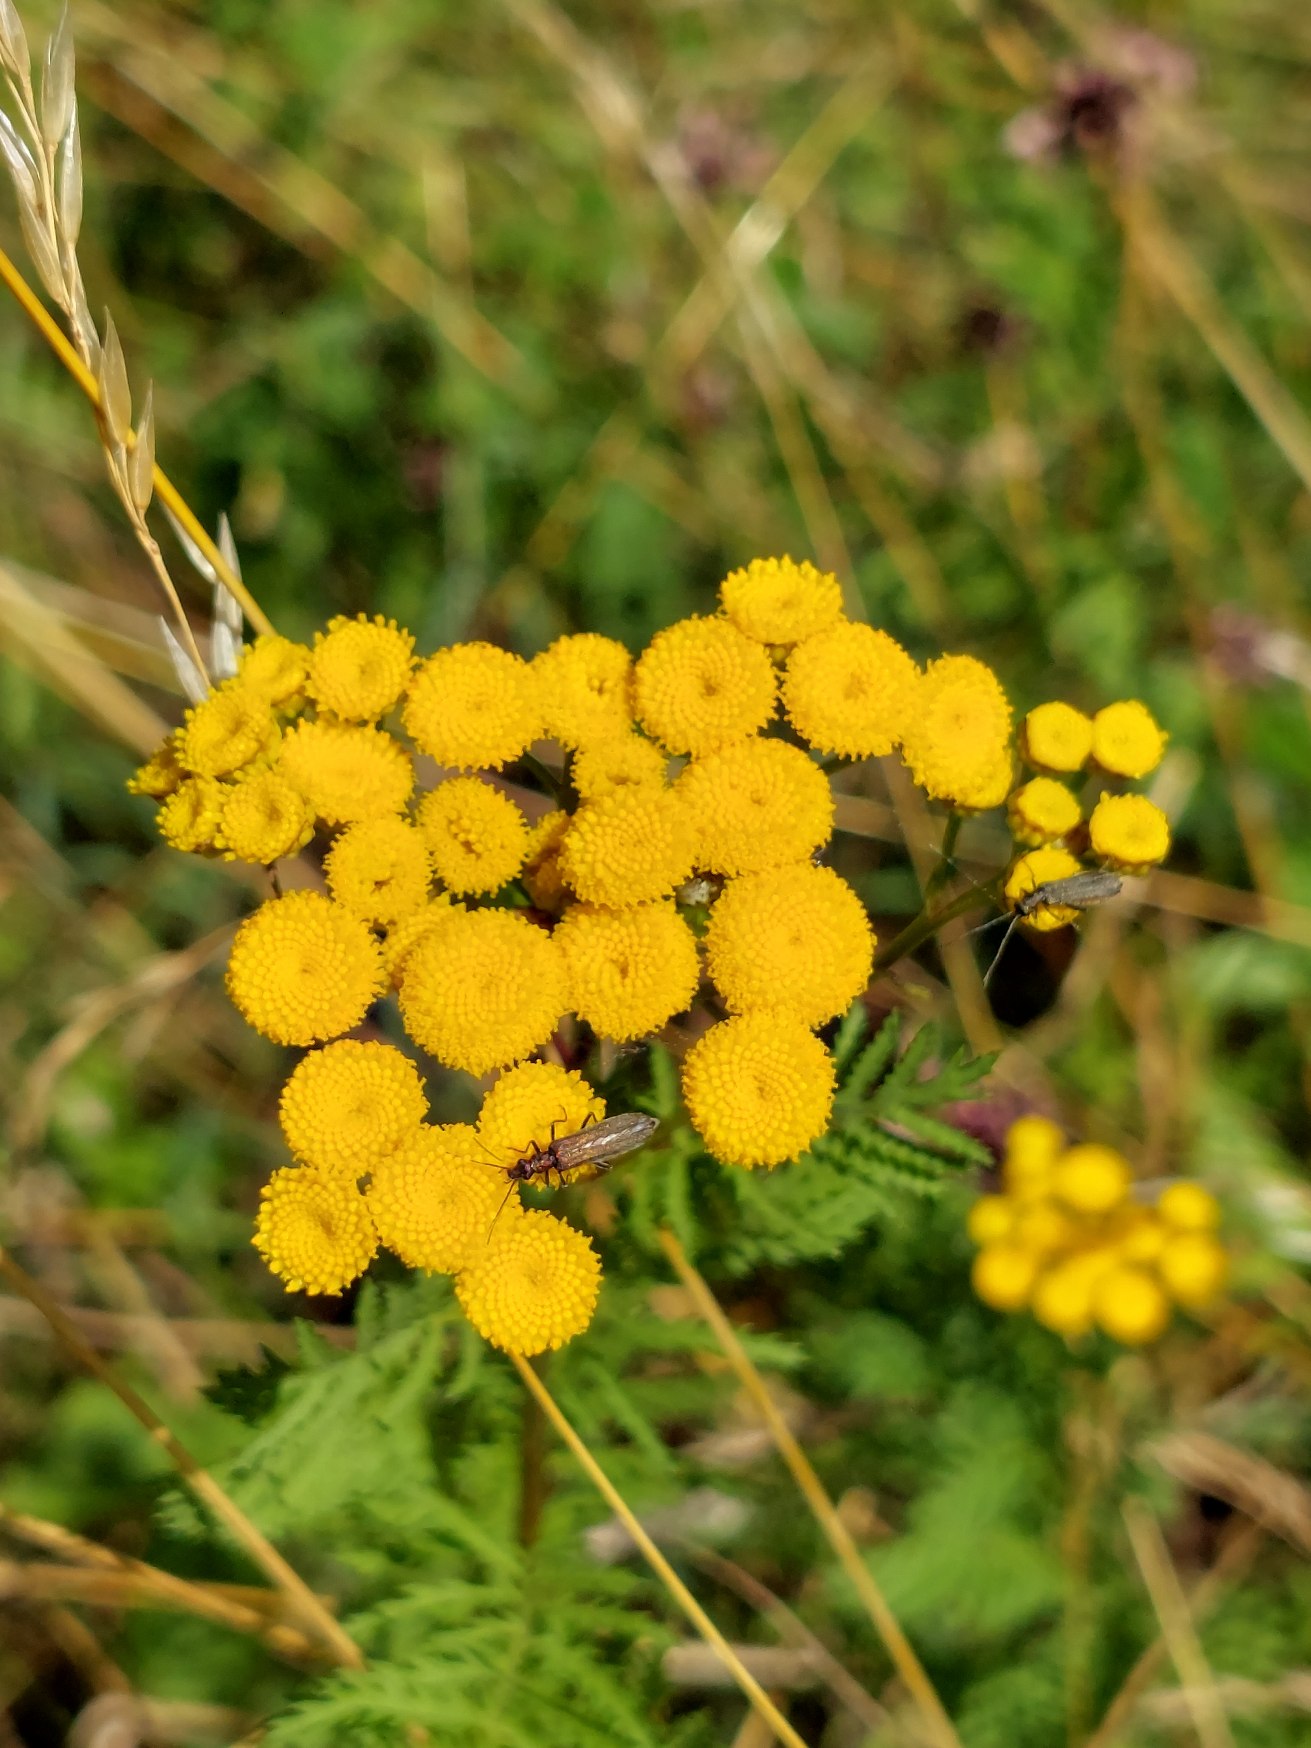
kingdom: Plantae
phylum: Tracheophyta
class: Magnoliopsida
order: Asterales
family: Asteraceae
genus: Tanacetum
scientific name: Tanacetum vulgare
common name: Rejnfan
